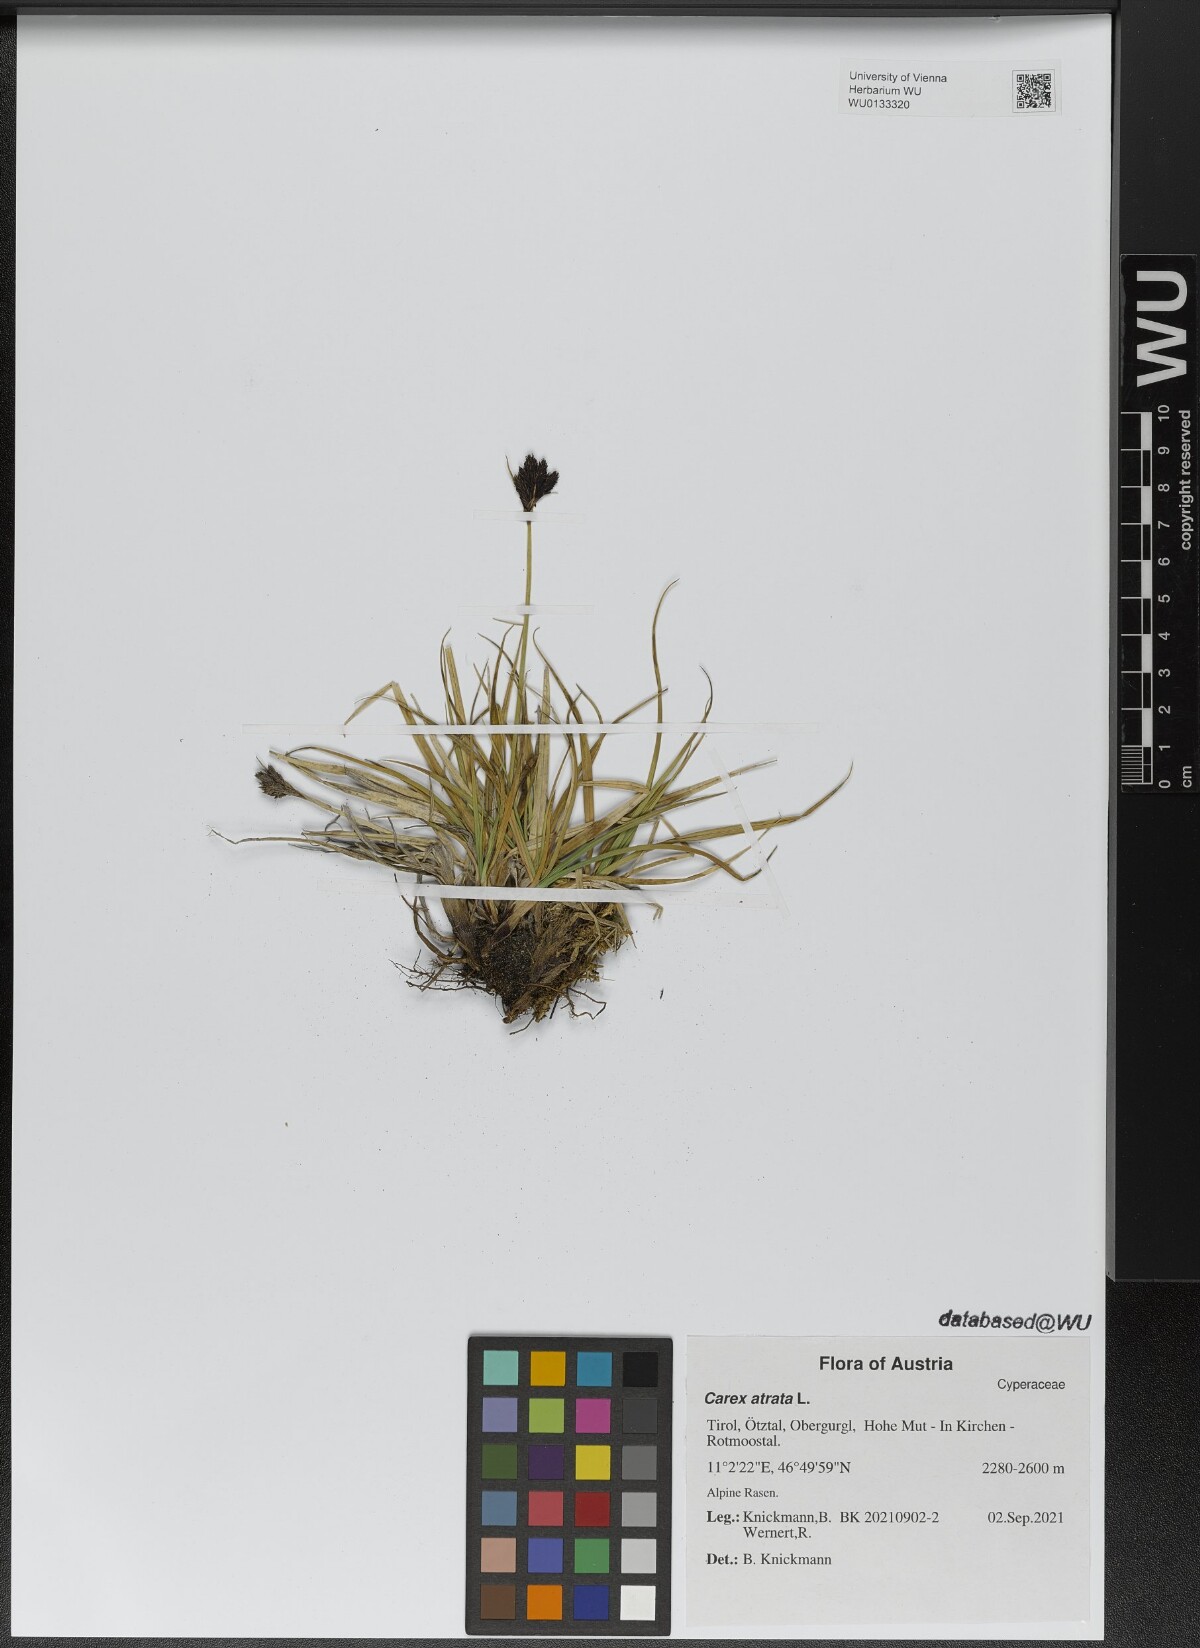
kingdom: Plantae
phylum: Tracheophyta
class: Liliopsida
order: Poales
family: Cyperaceae
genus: Carex
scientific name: Carex atrata
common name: Black alpine sedge
